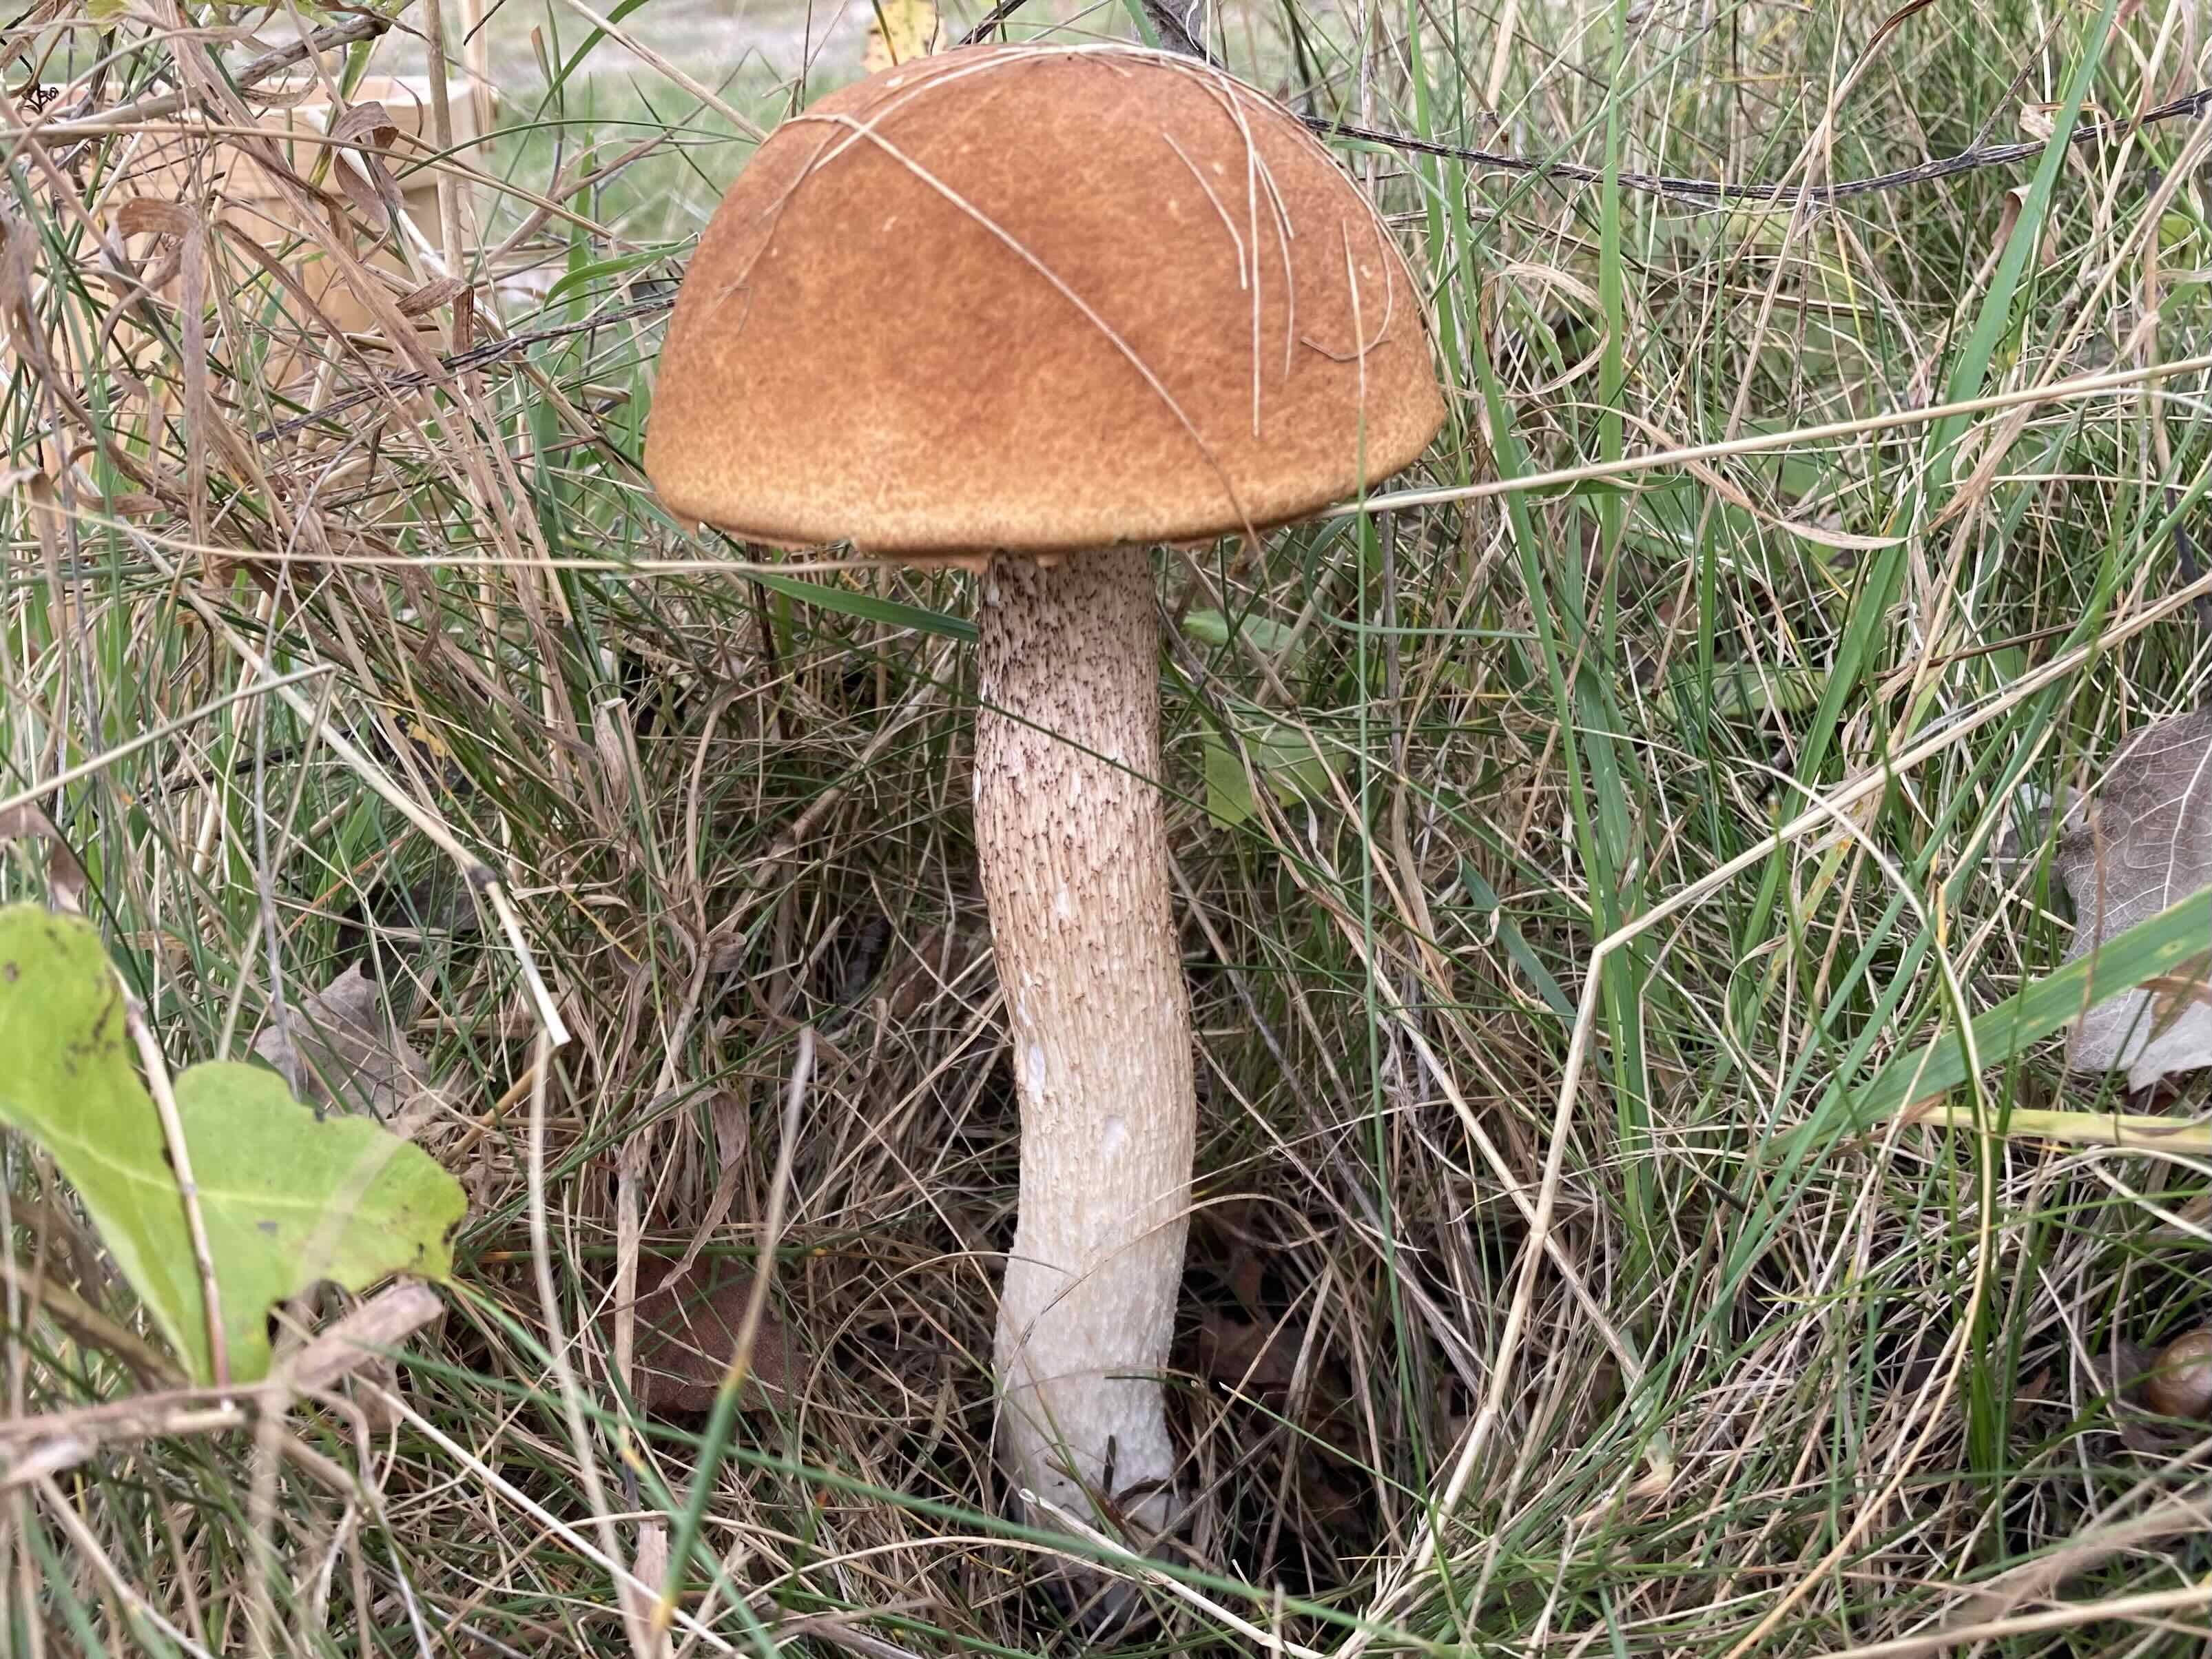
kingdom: Fungi
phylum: Basidiomycota
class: Agaricomycetes
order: Boletales
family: Boletaceae
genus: Leccinum
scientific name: Leccinum albostipitatum
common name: aspe-skælrørhat
